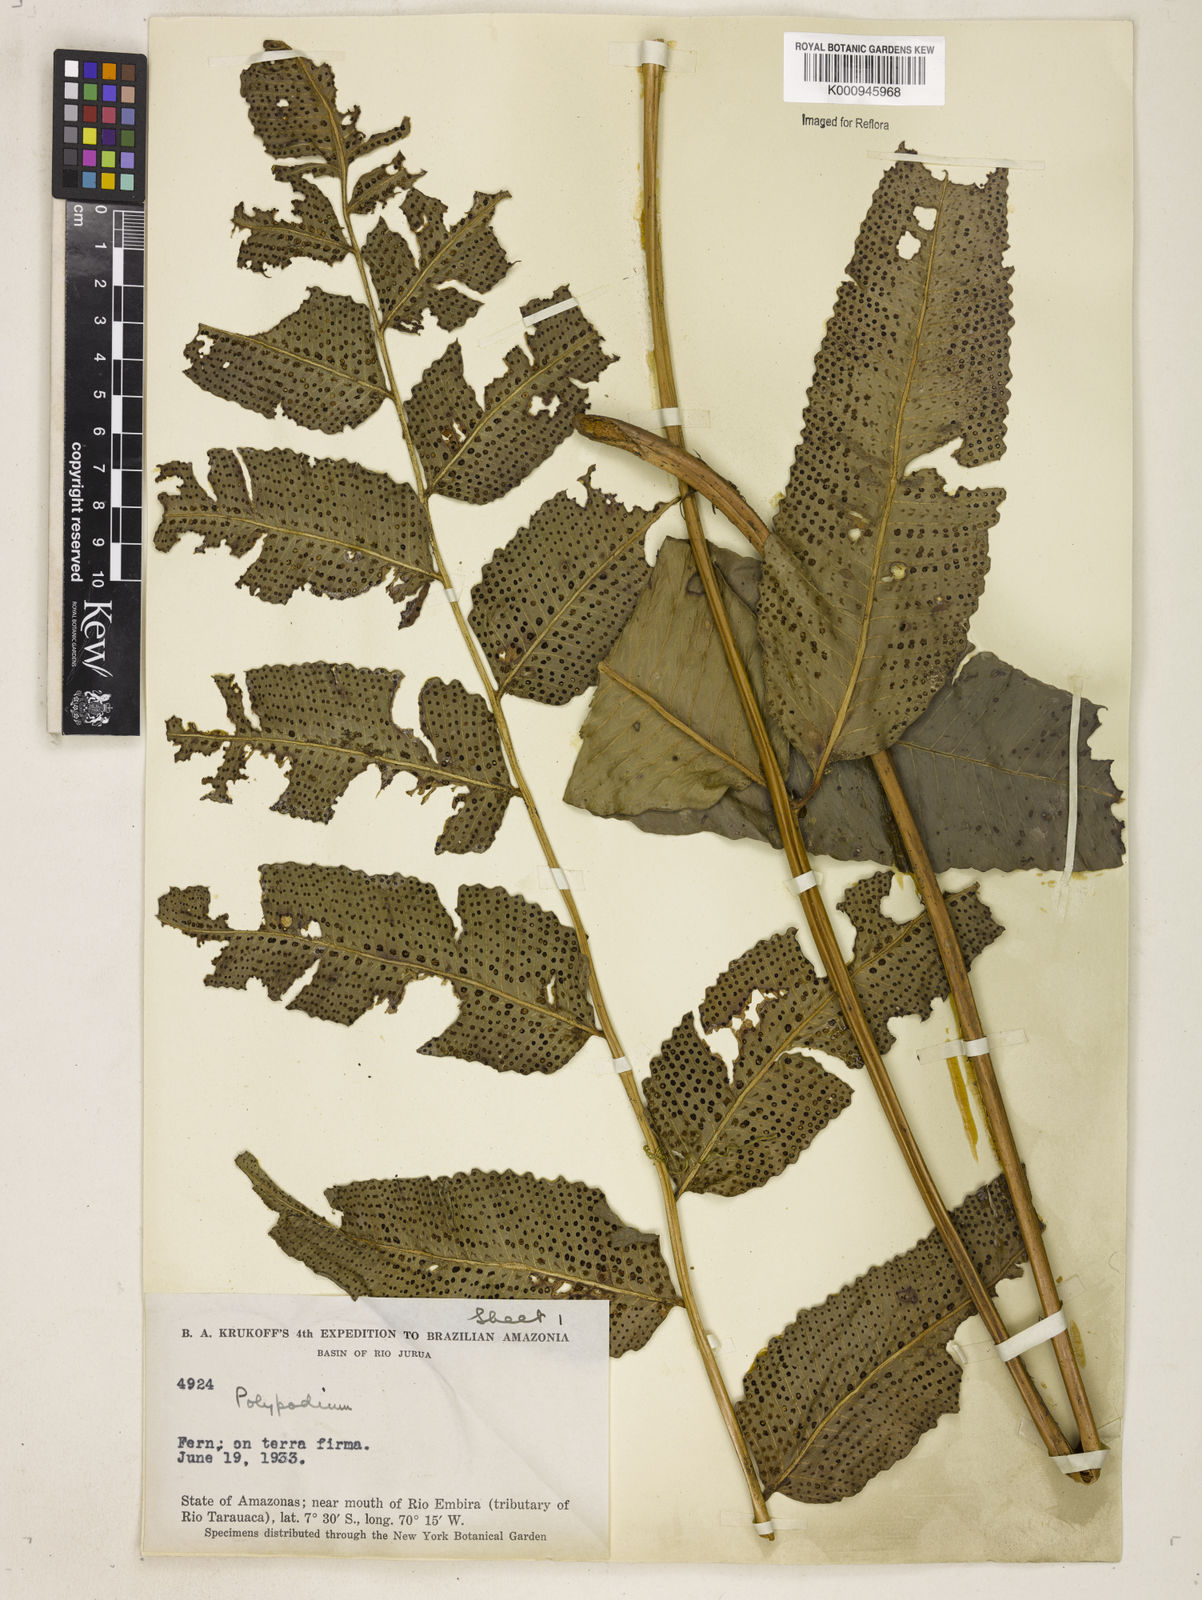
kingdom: Plantae
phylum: Tracheophyta
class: Polypodiopsida
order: Polypodiales
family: Dryopteridaceae
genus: Cyclodium
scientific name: Cyclodium meniscioides
